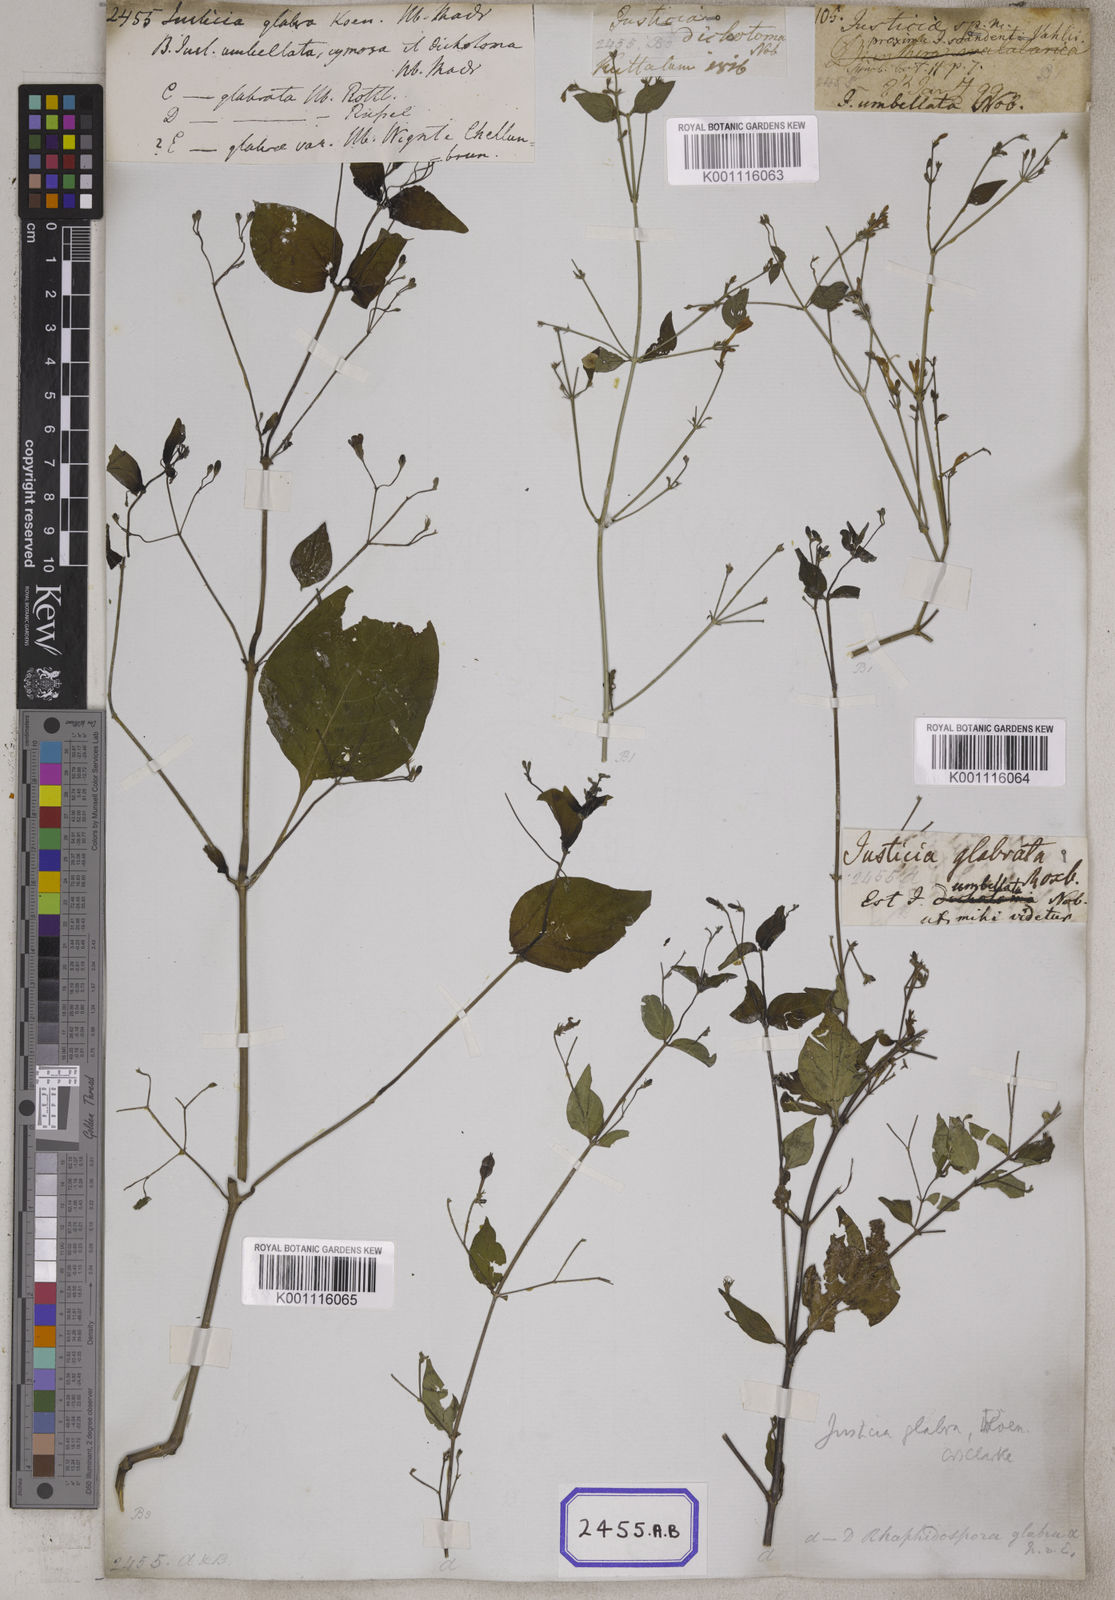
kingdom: Plantae
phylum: Tracheophyta
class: Magnoliopsida
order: Lamiales
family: Acanthaceae
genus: Justicia
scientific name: Justicia
